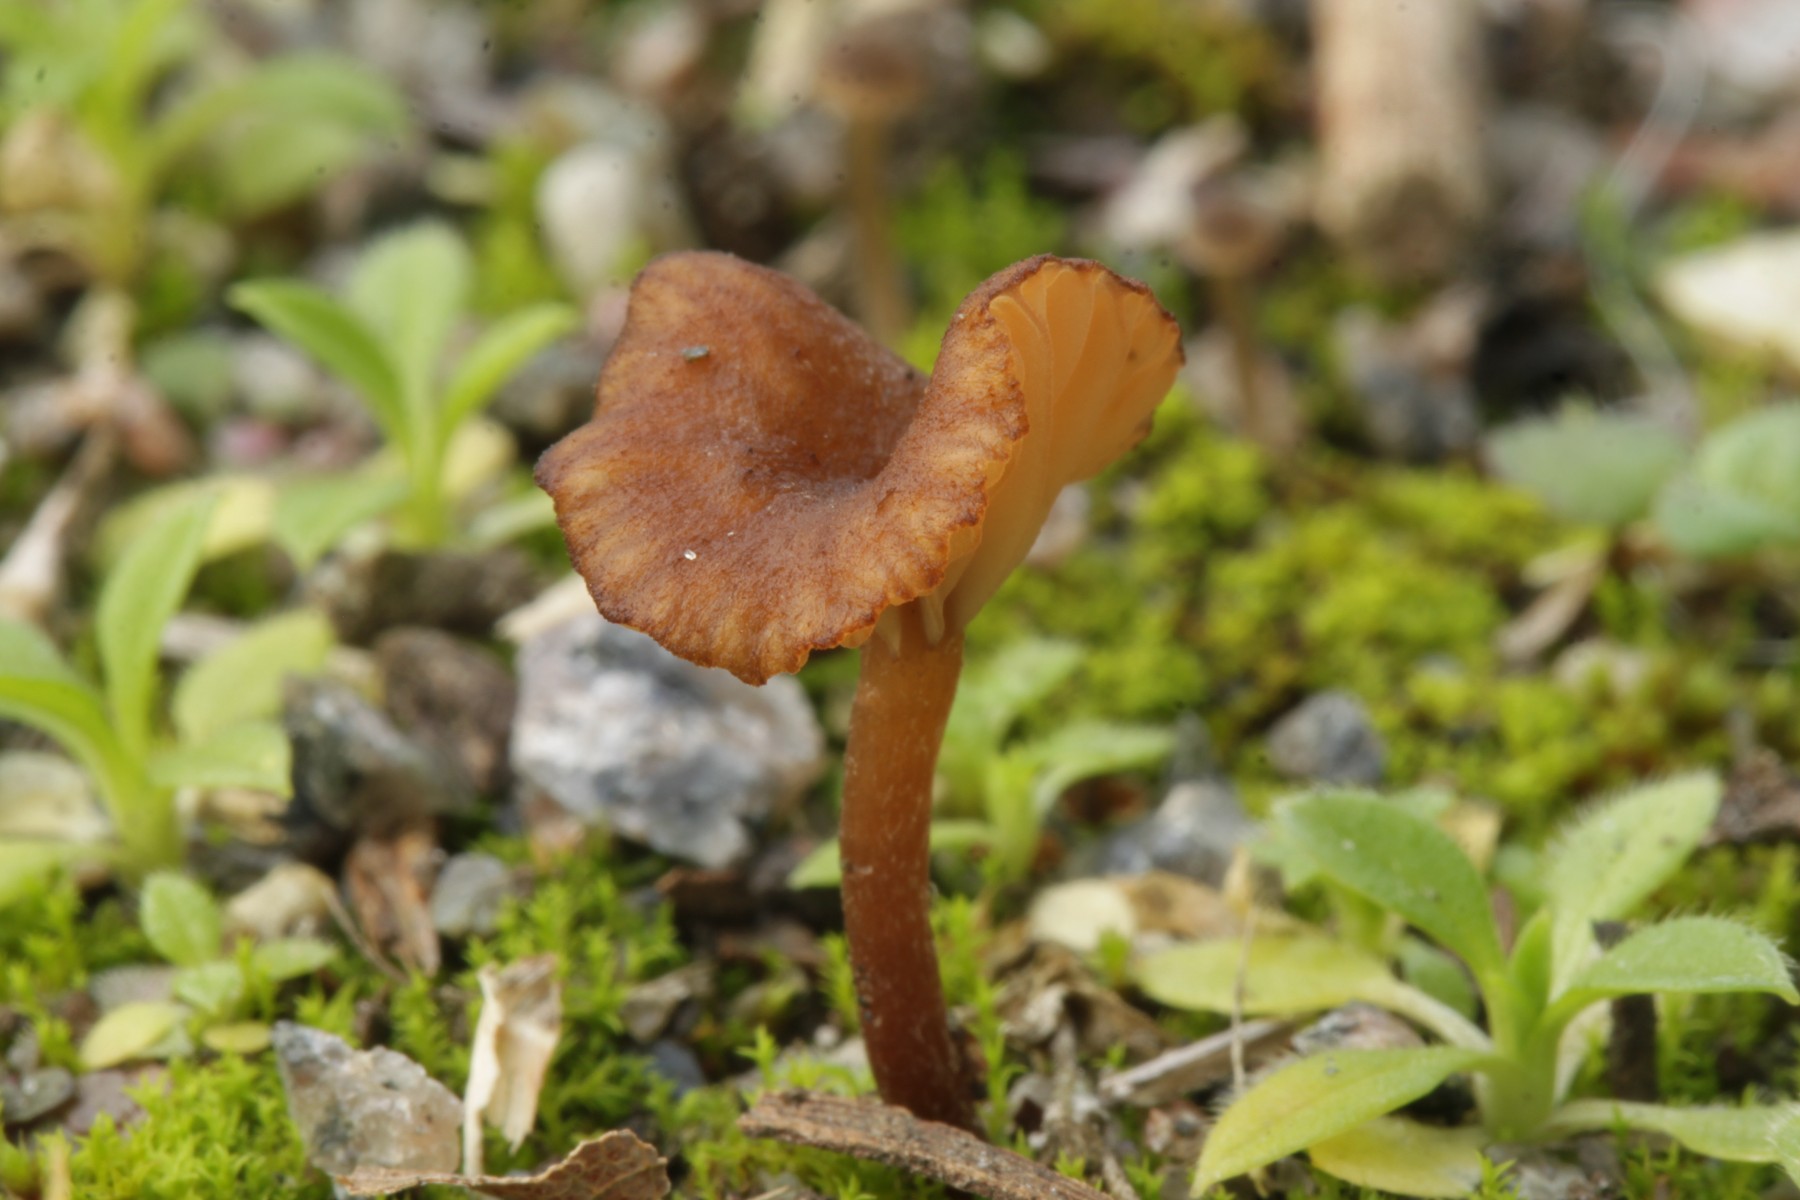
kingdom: Fungi
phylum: Basidiomycota
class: Agaricomycetes
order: Agaricales
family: Hygrophoraceae
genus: Arrhenia
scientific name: Arrhenia rustica
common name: dyster fontænehat
